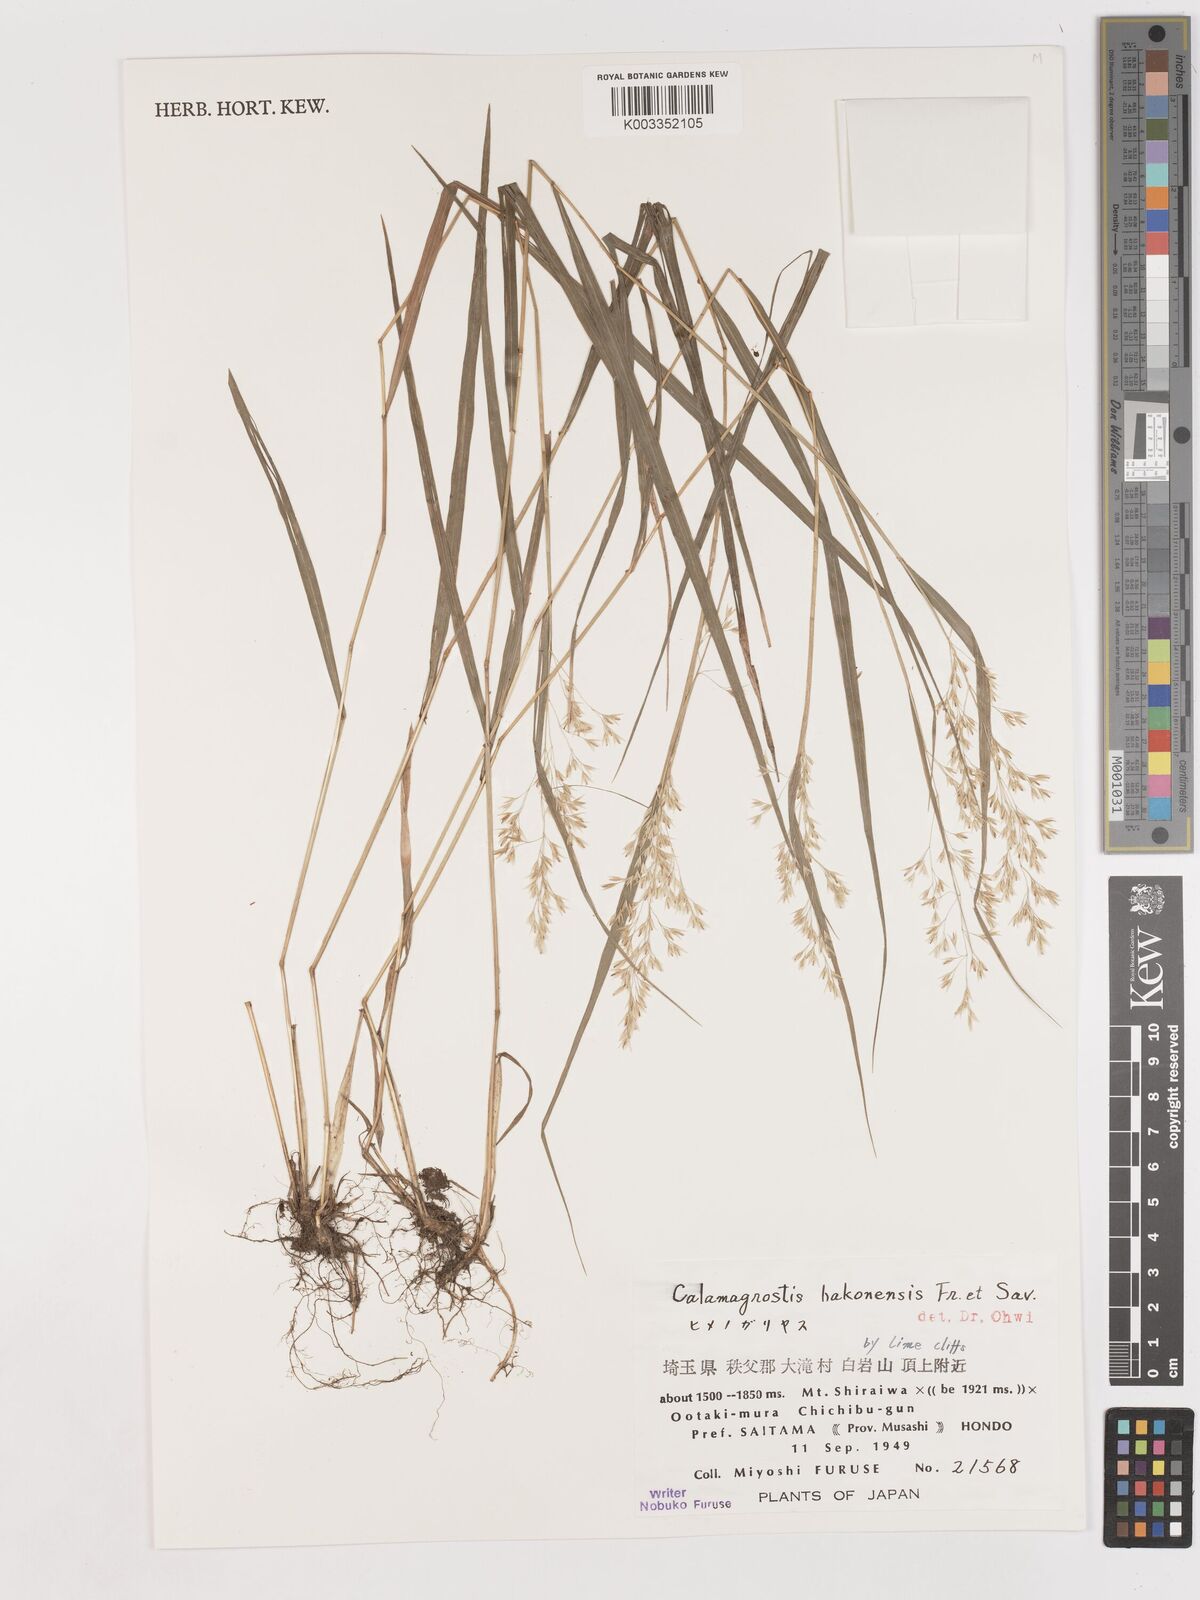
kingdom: Plantae
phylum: Tracheophyta
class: Liliopsida
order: Poales
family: Poaceae
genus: Calamagrostis
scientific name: Calamagrostis hakonensis
